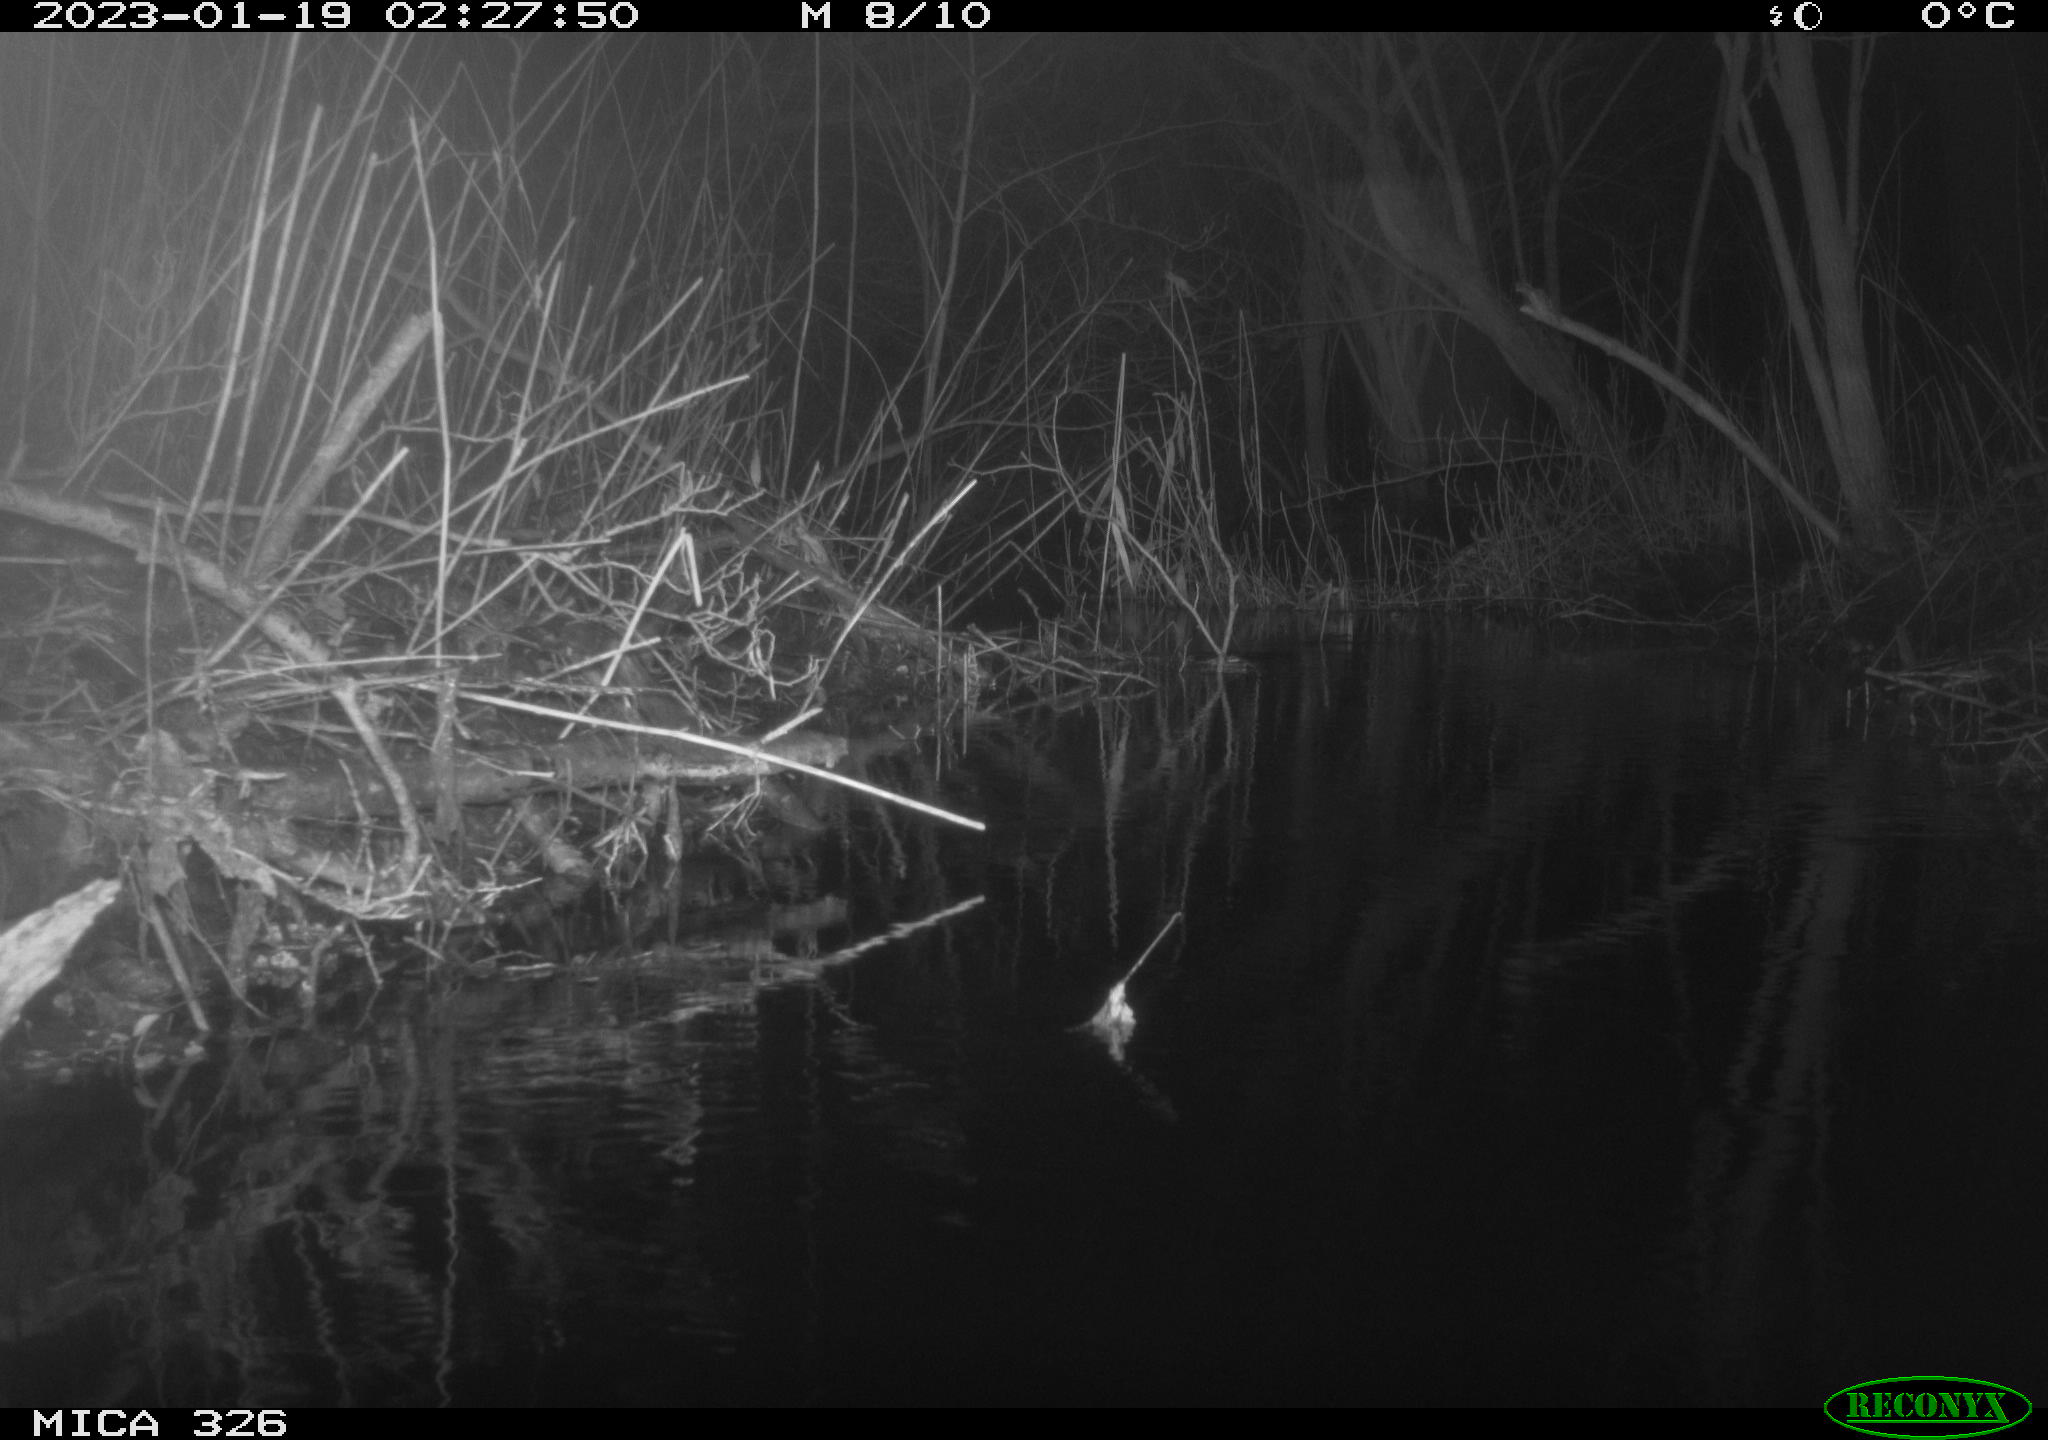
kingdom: Animalia
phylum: Chordata
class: Mammalia
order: Rodentia
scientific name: Rodentia
